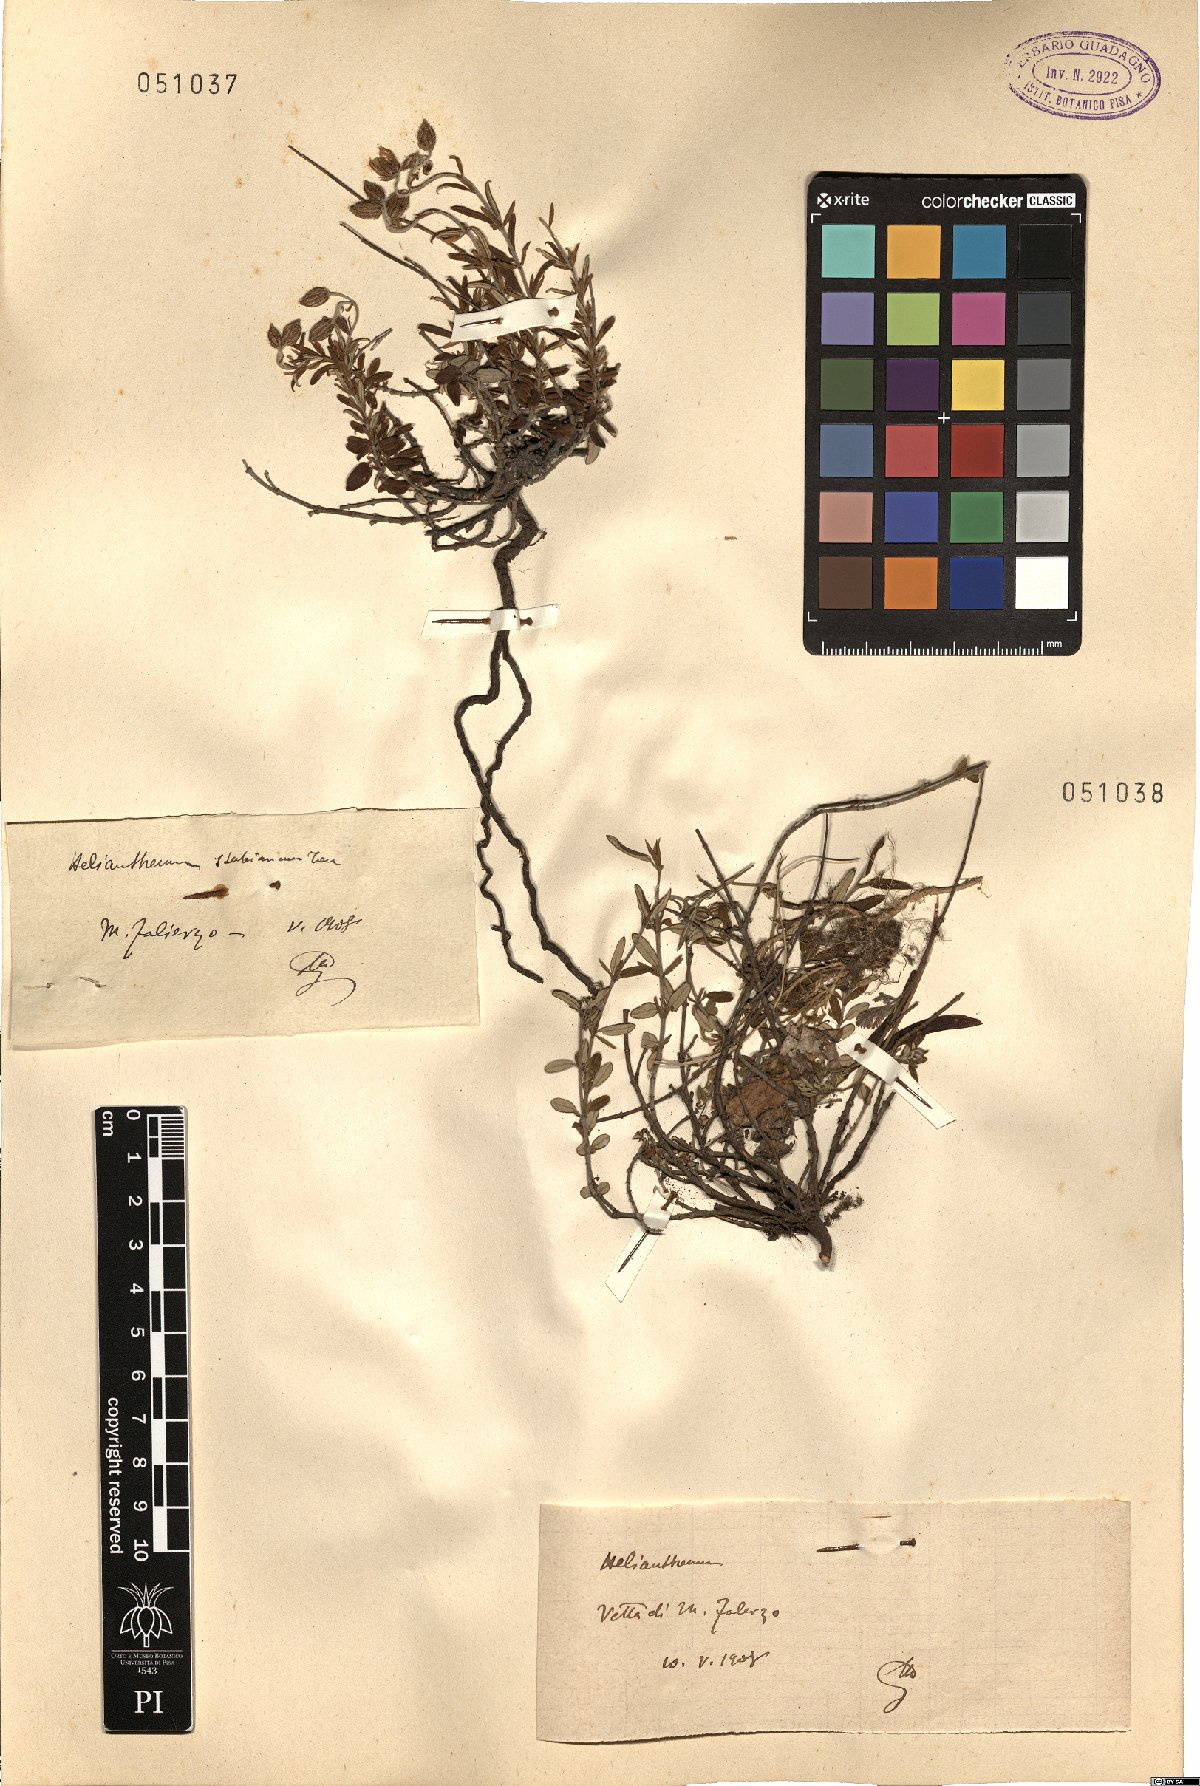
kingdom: Plantae
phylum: Tracheophyta
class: Magnoliopsida
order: Malvales
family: Cistaceae
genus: Helianthemum
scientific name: Helianthemum croceum
